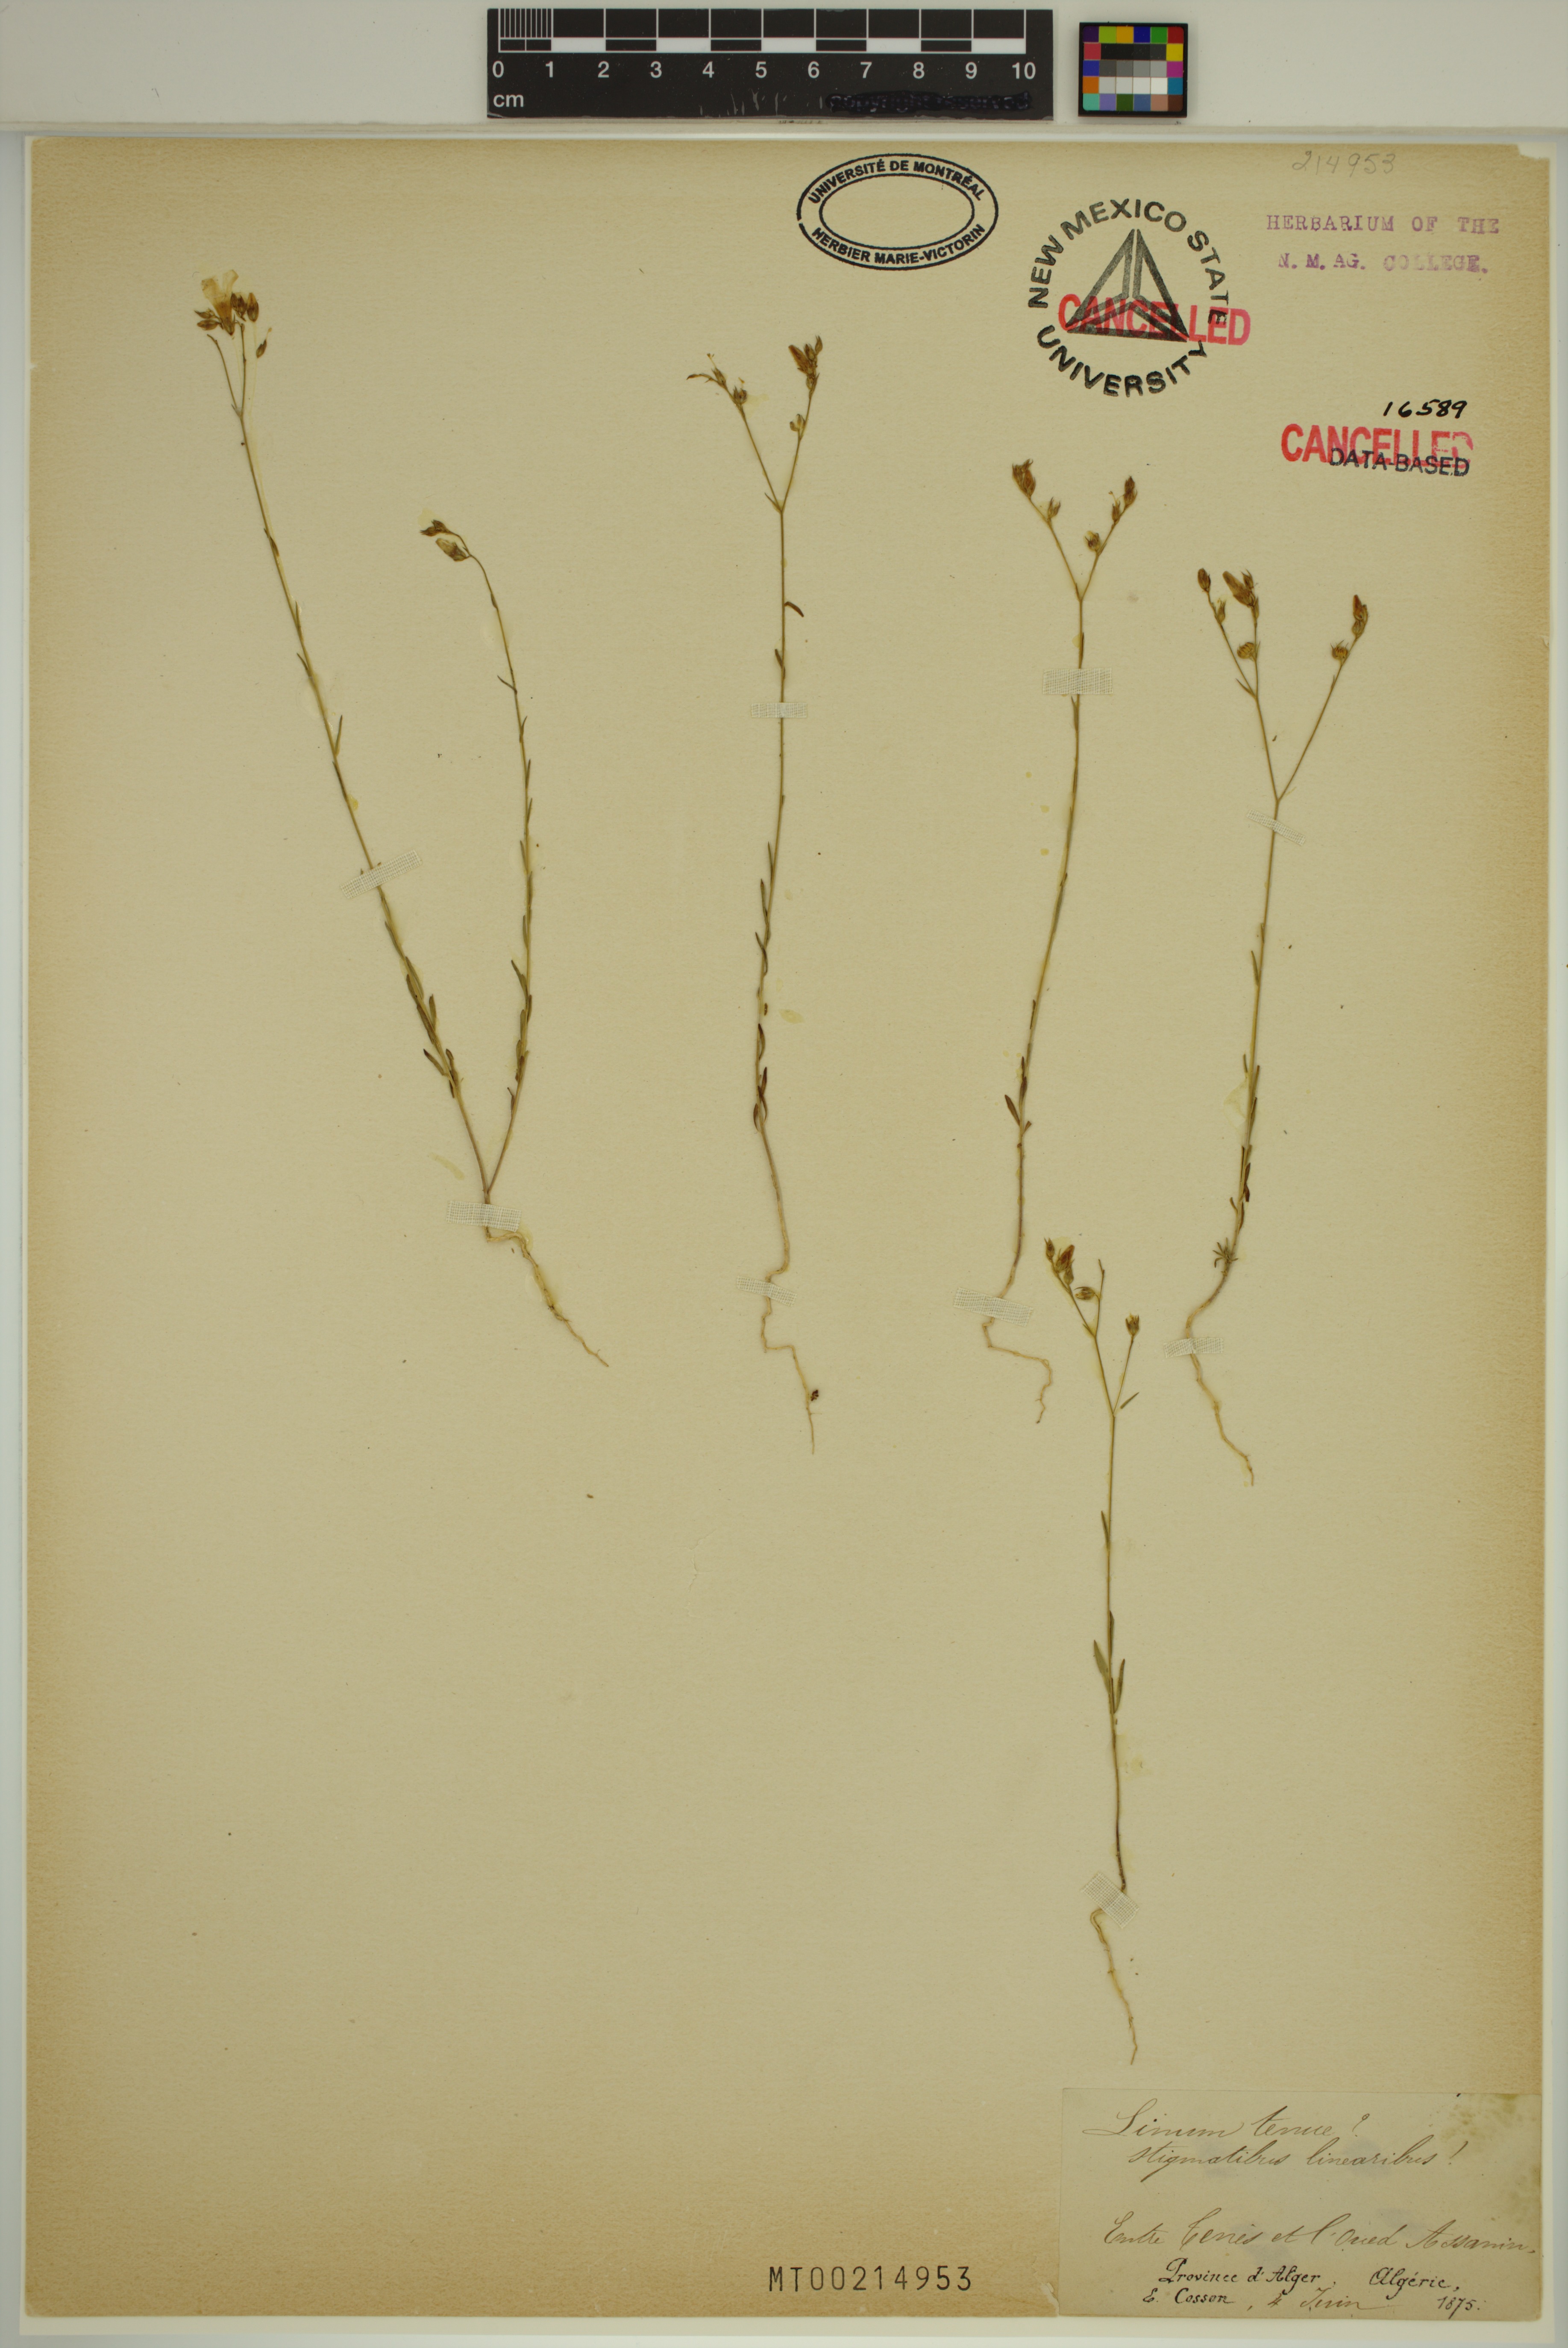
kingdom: Plantae
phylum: Tracheophyta
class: Magnoliopsida
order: Malpighiales
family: Linaceae
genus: Linum
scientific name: Linum tenue
